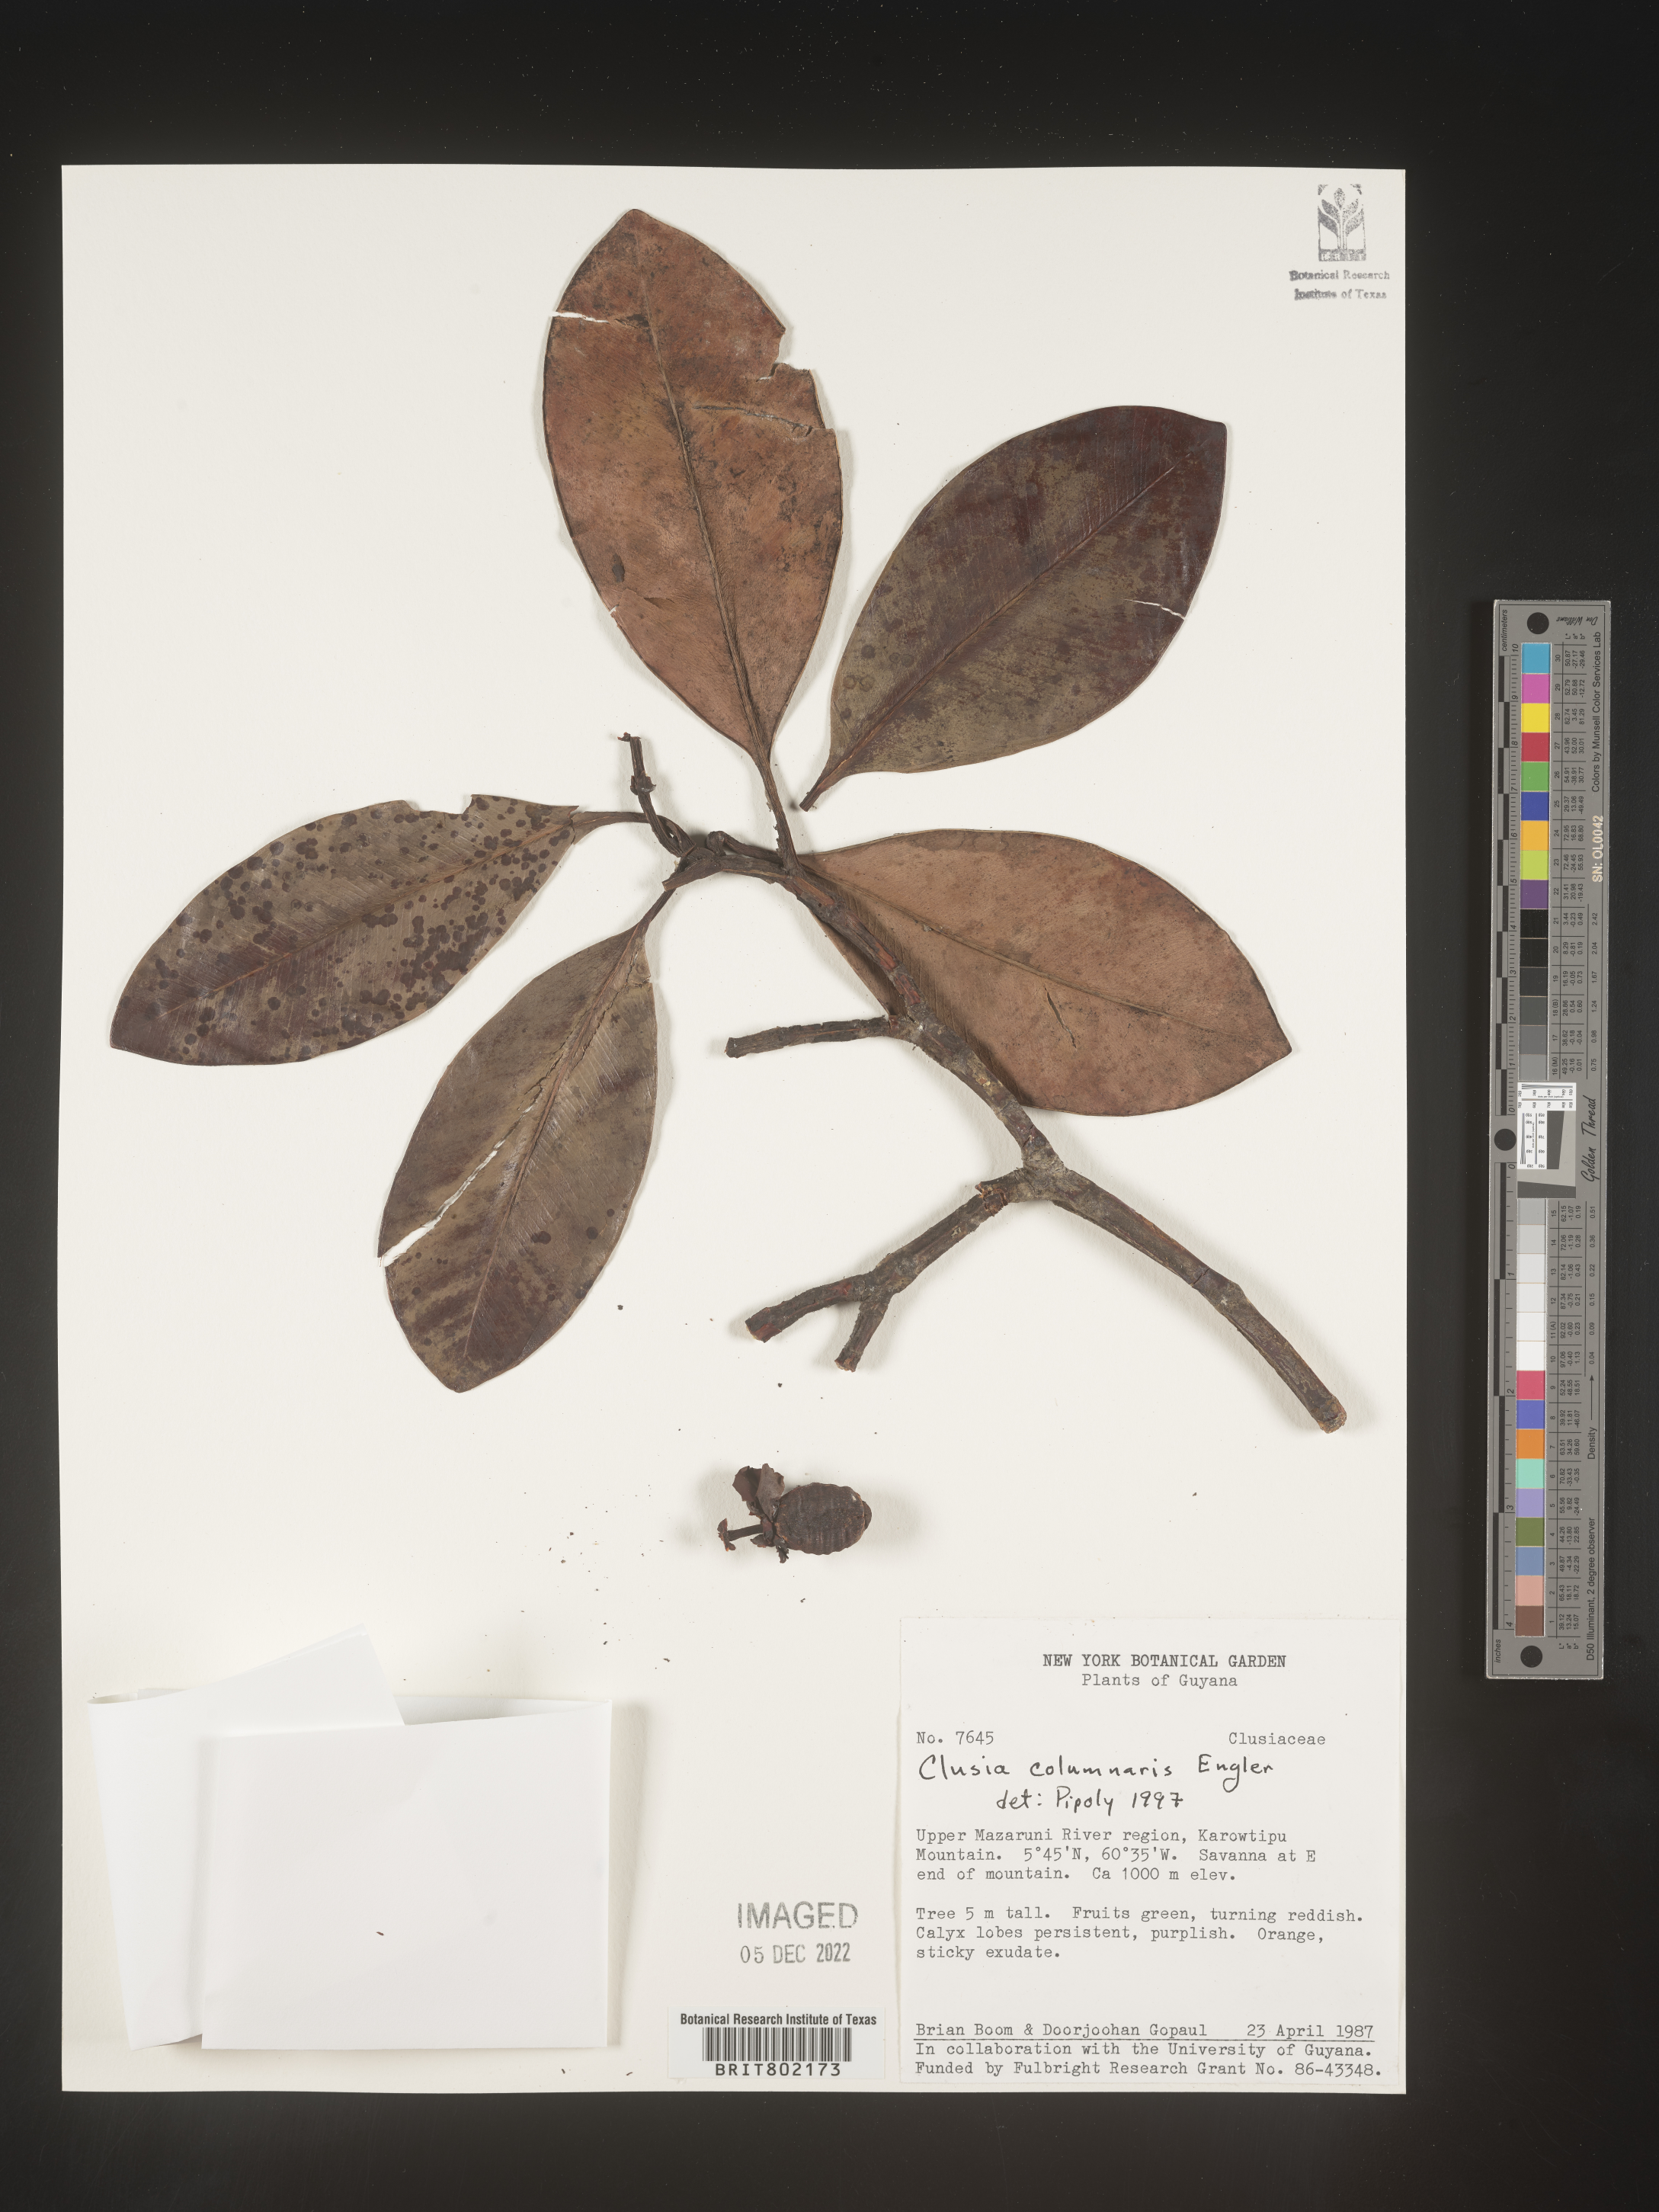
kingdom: Plantae
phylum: Tracheophyta
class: Magnoliopsida
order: Malpighiales
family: Clusiaceae
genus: Clusia
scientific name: Clusia columnaris
